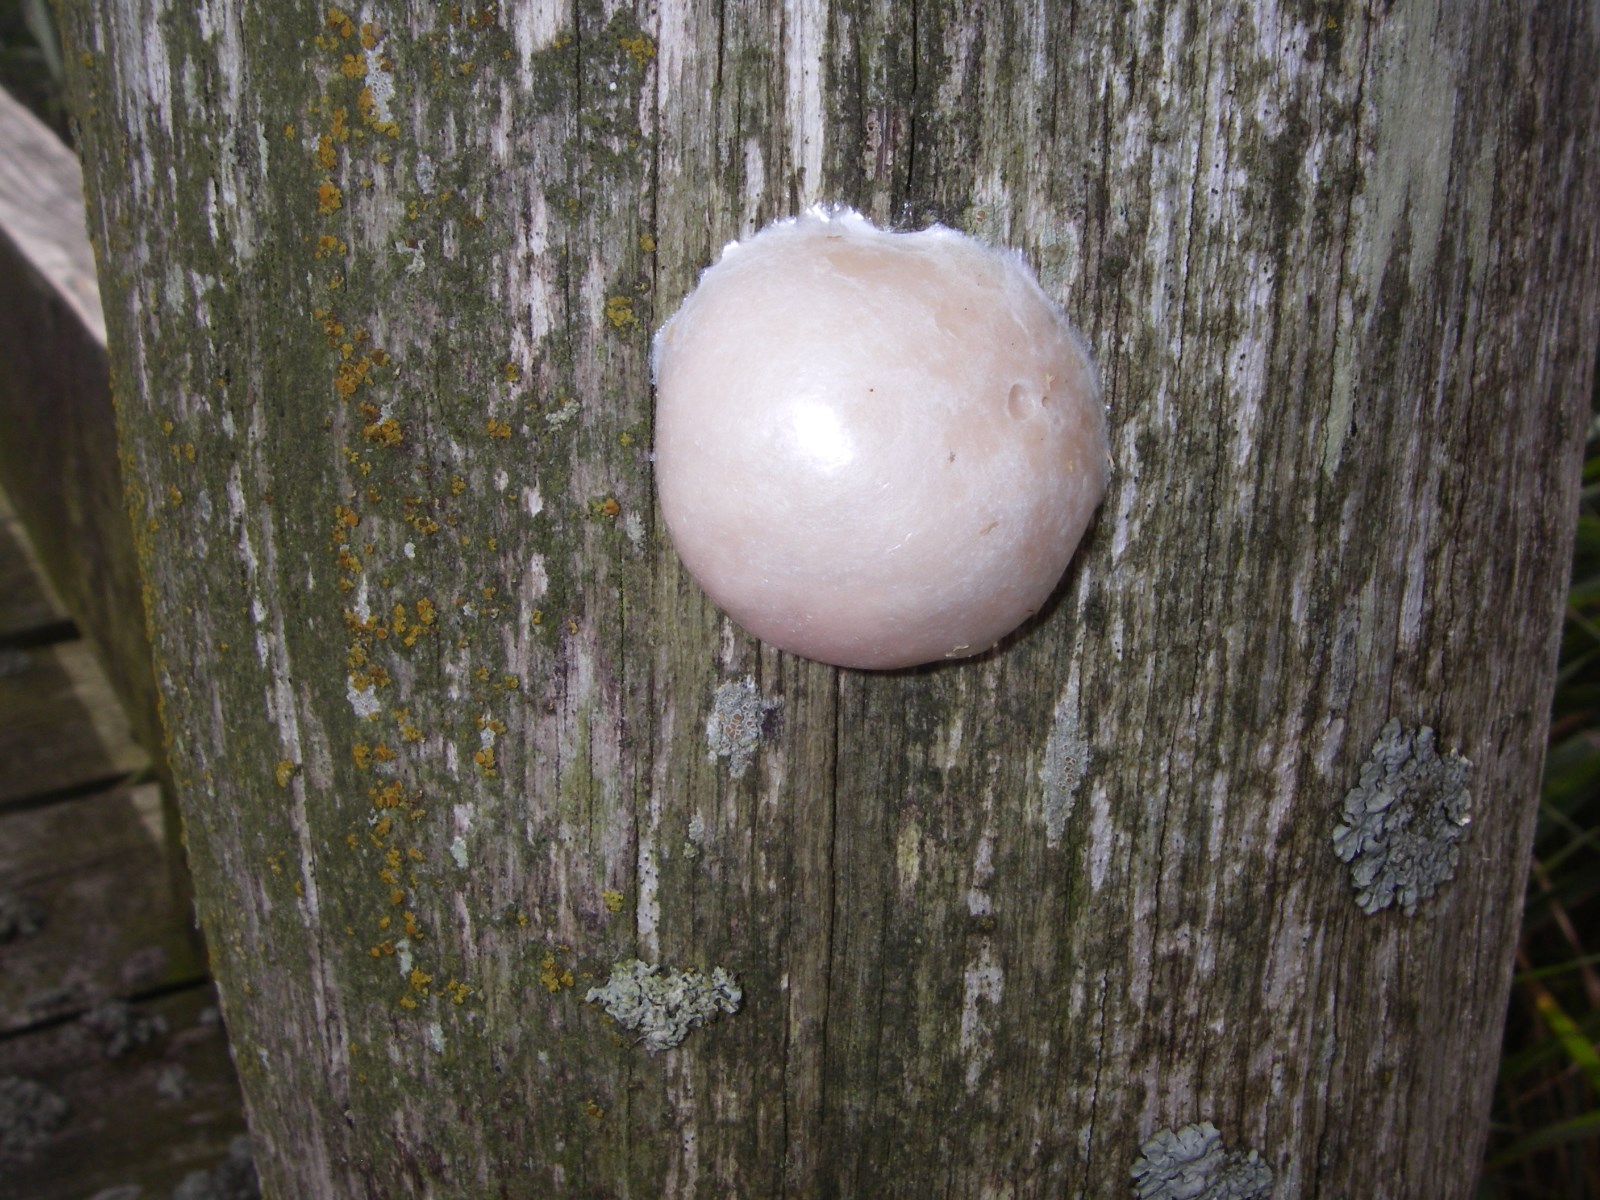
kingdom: Protozoa
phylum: Mycetozoa
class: Myxomycetes
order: Cribrariales
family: Tubiferaceae
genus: Reticularia
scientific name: Reticularia lycoperdon
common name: skinnende støvpude
